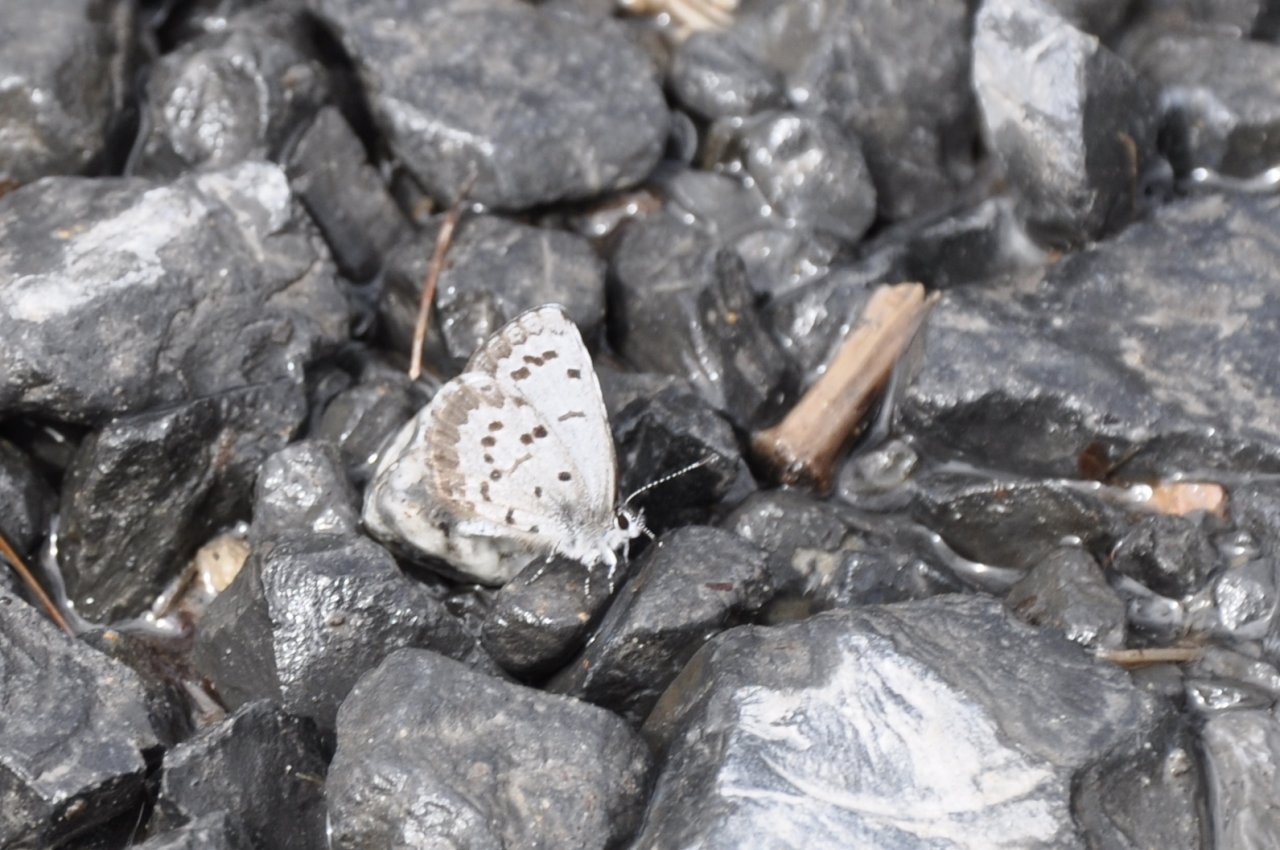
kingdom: Animalia
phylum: Arthropoda
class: Insecta
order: Lepidoptera
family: Lycaenidae
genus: Celastrina
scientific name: Celastrina lucia
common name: Northern Spring Azure
